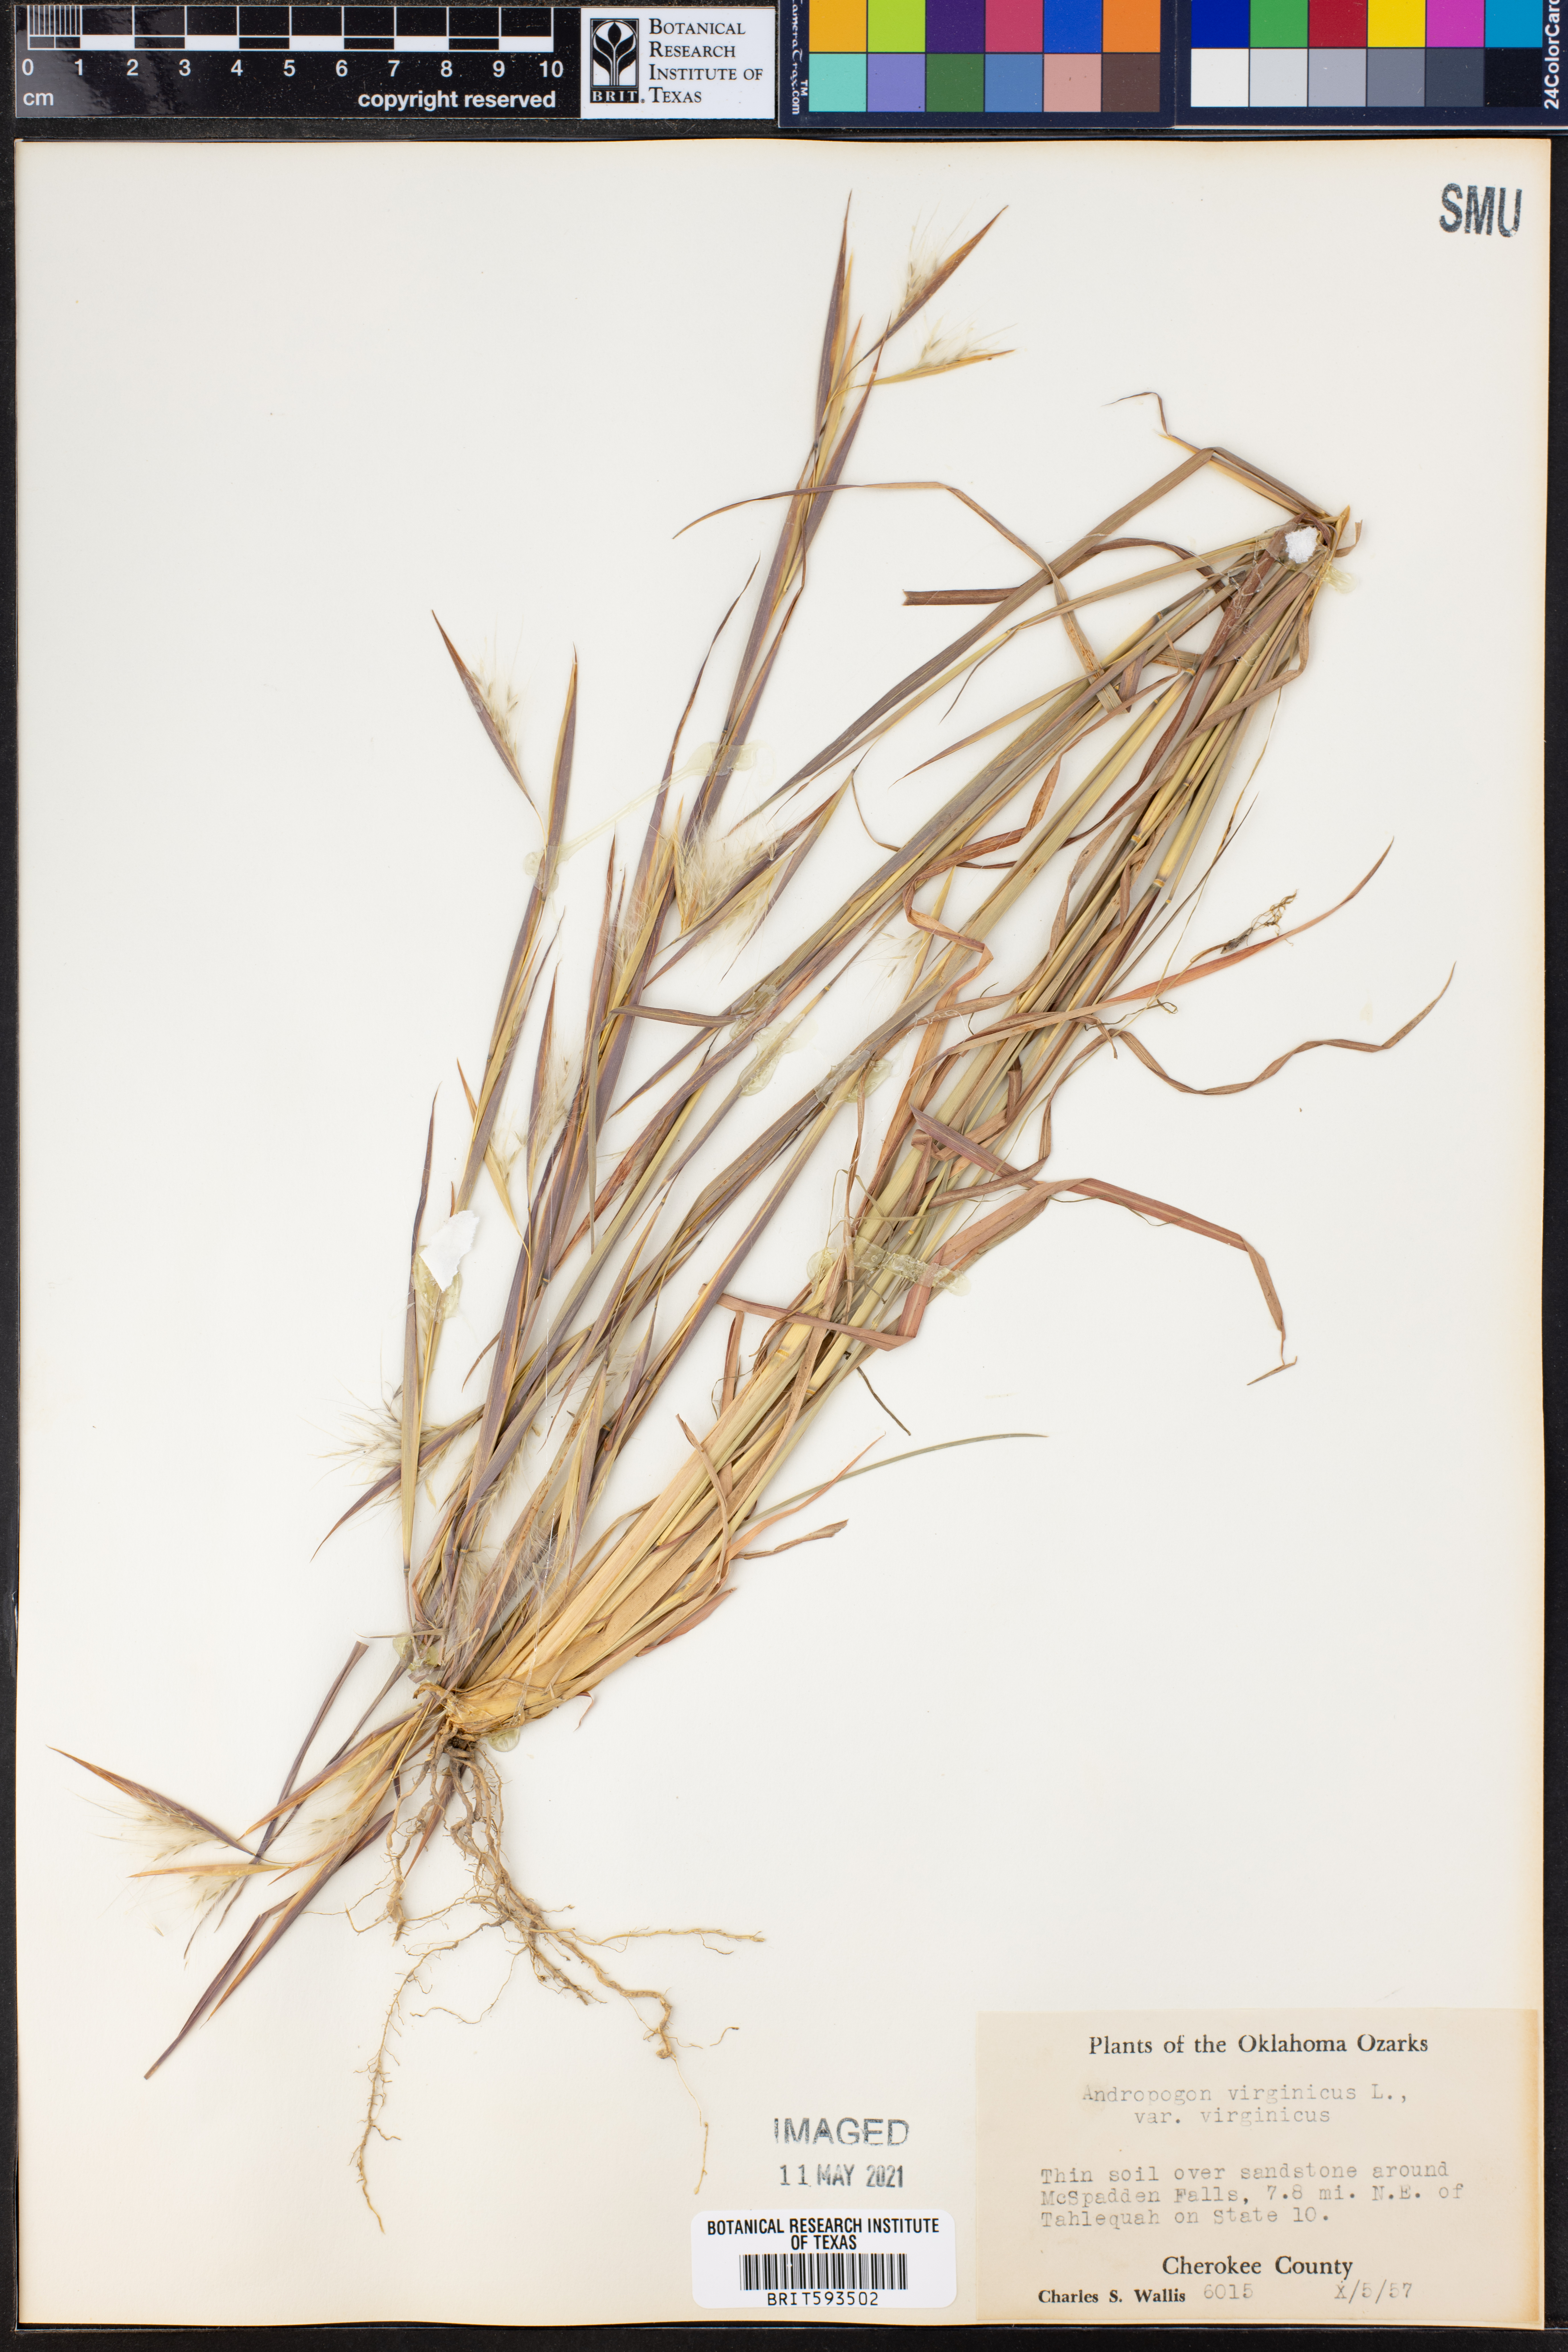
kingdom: Plantae
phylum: Tracheophyta
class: Liliopsida
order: Poales
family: Poaceae
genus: Andropogon
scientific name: Andropogon virginicus
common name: Broomsedge bluestem
